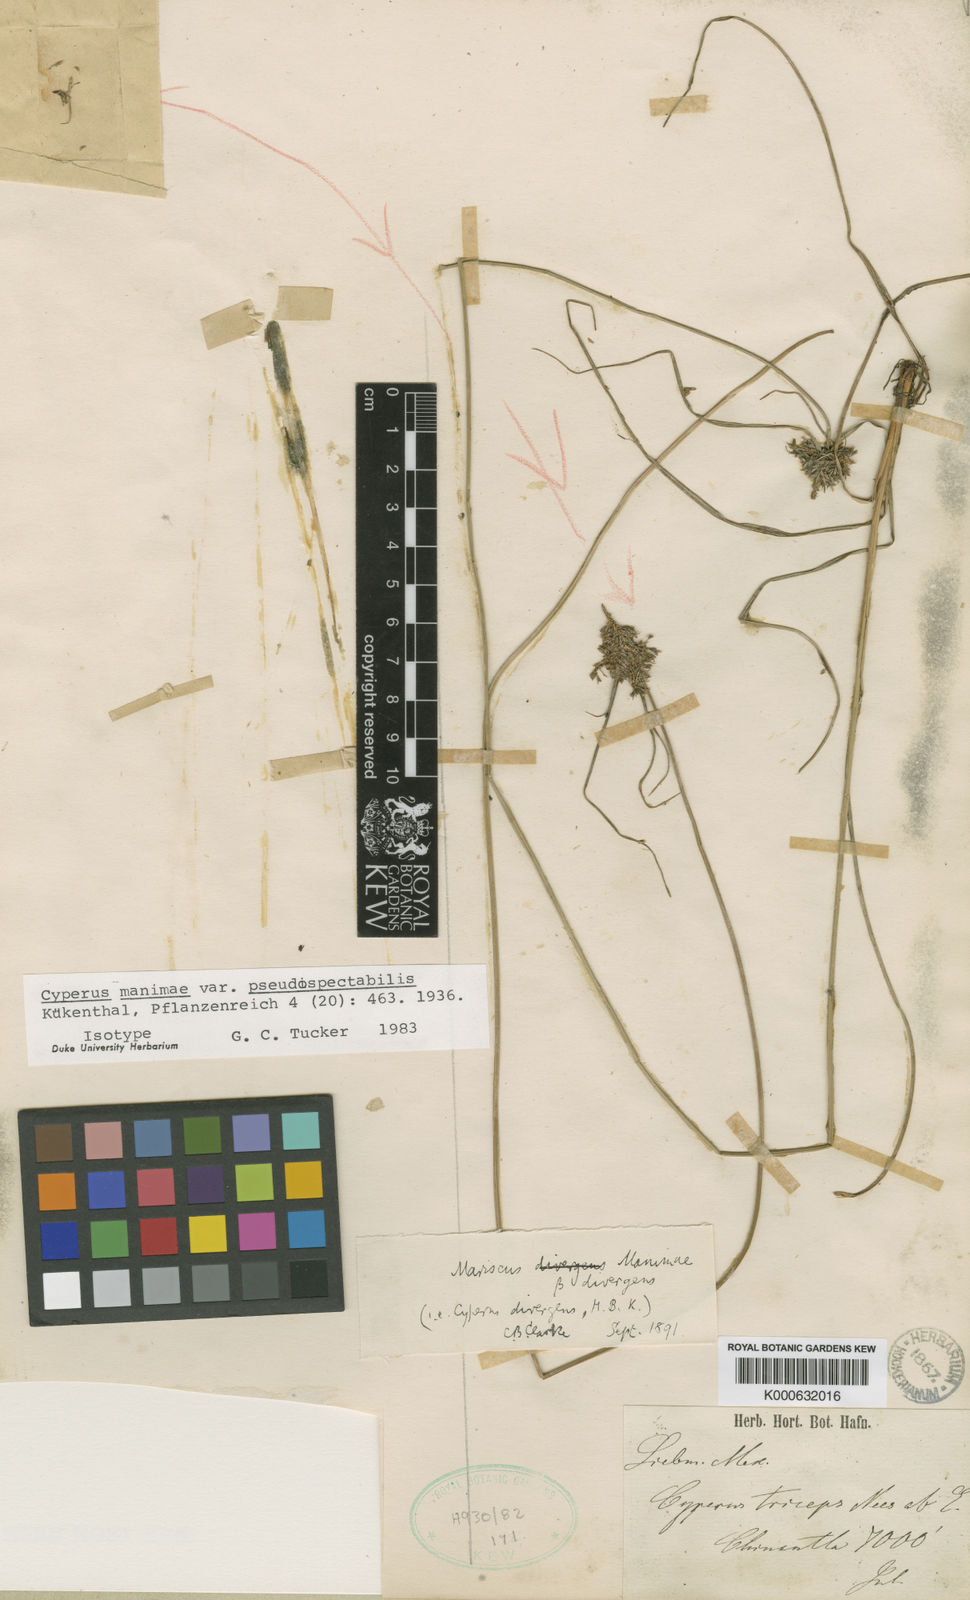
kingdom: Plantae
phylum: Tracheophyta
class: Liliopsida
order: Poales
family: Cyperaceae
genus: Cyperus
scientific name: Cyperus manimae
